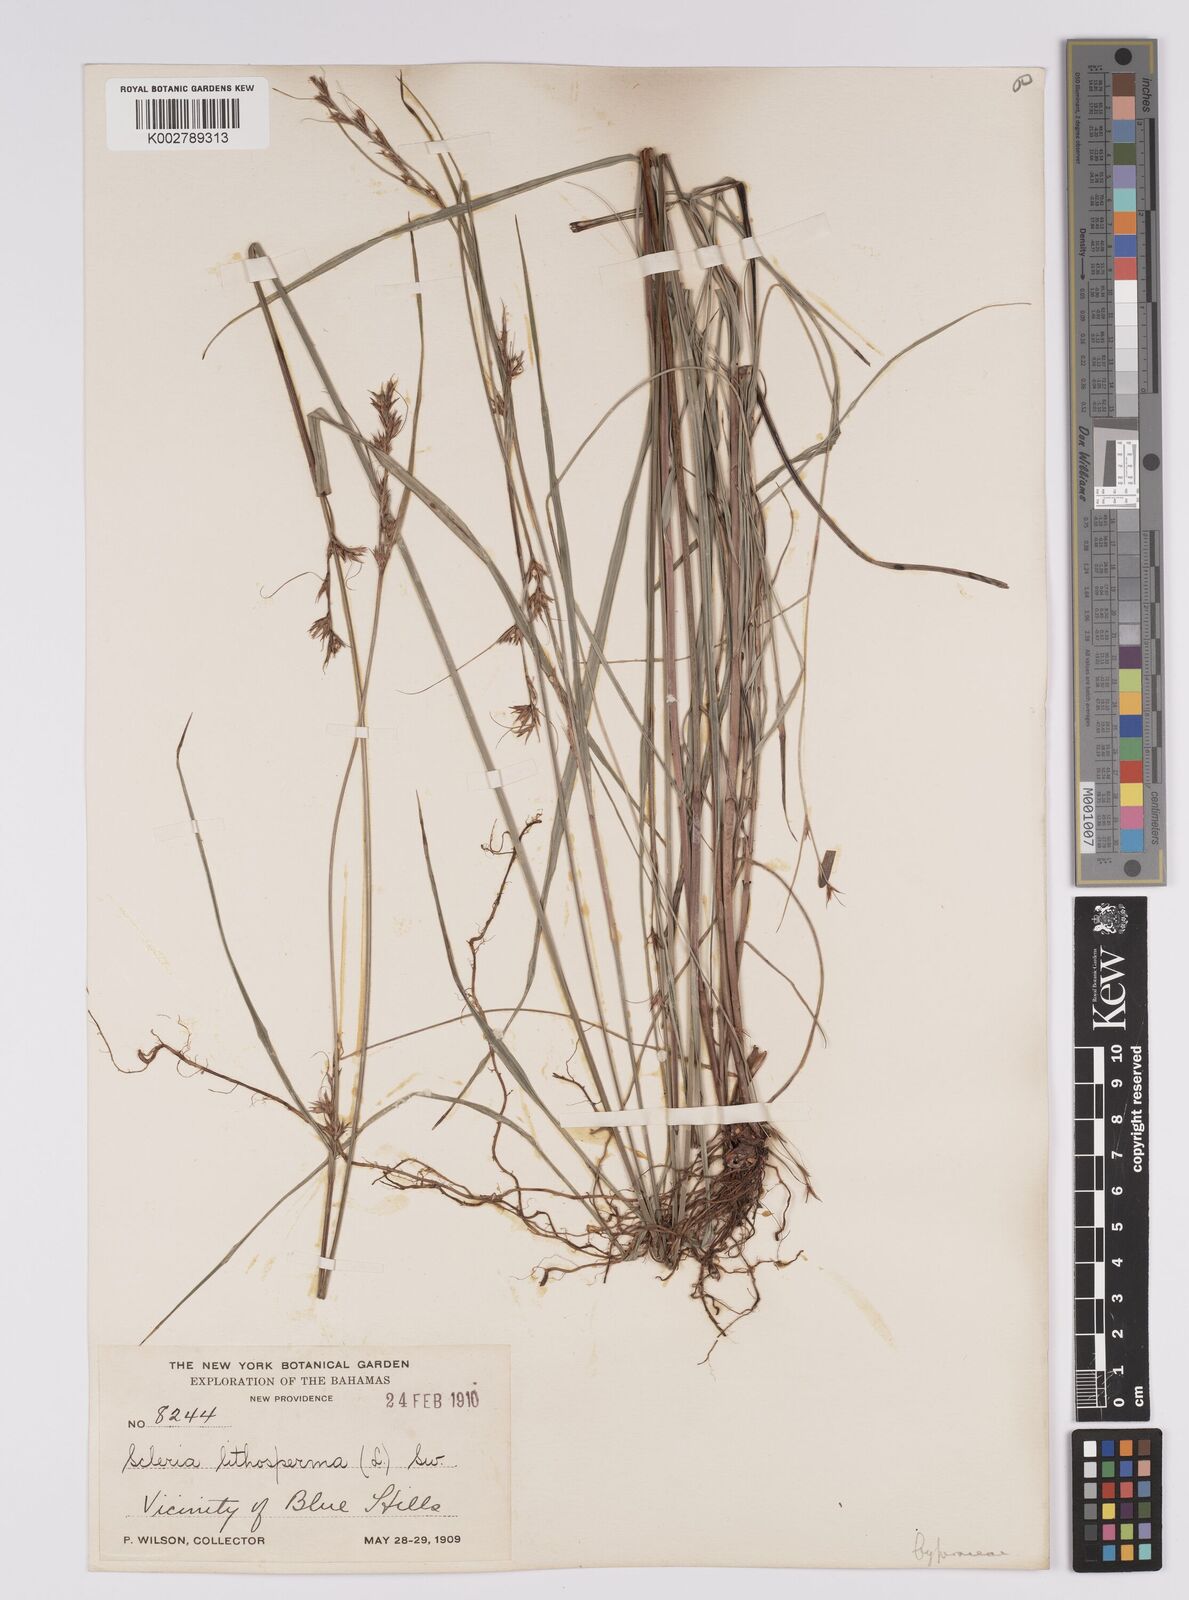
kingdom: Plantae
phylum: Tracheophyta
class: Liliopsida
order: Poales
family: Cyperaceae
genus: Scleria
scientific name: Scleria lithosperma
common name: Florida keys nut-rush
